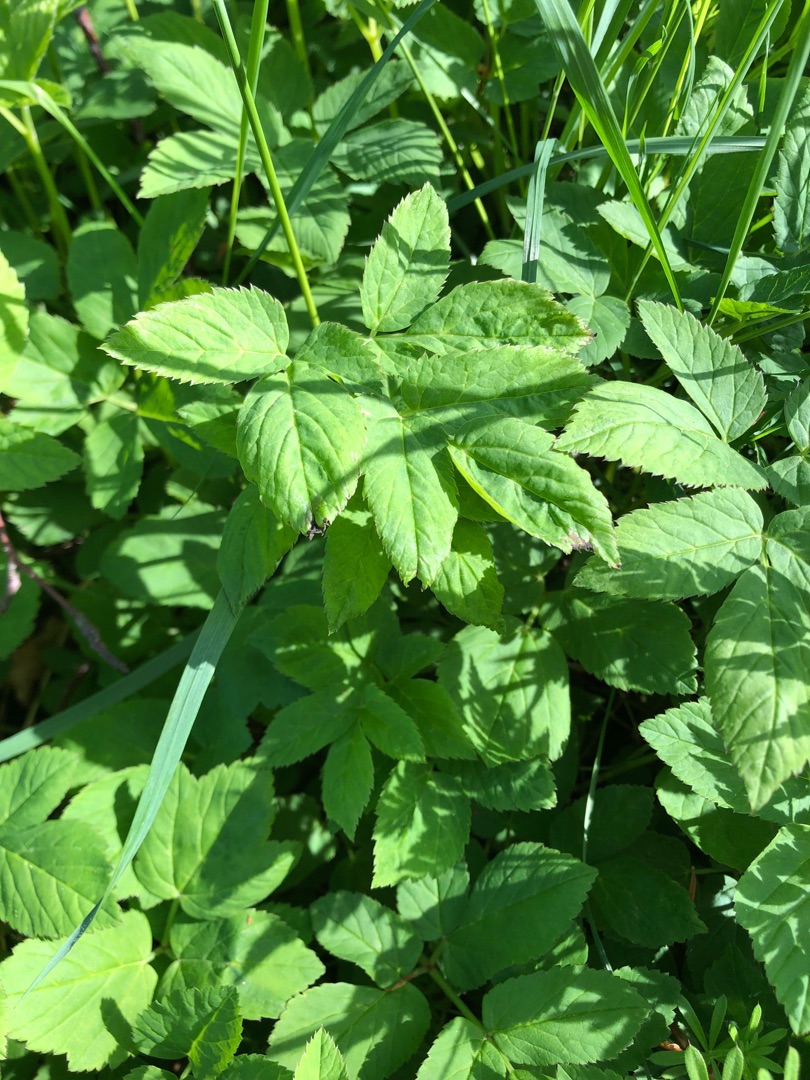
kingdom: Plantae
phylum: Tracheophyta
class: Magnoliopsida
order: Apiales
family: Apiaceae
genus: Aegopodium
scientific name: Aegopodium podagraria
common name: Skvalderkål
